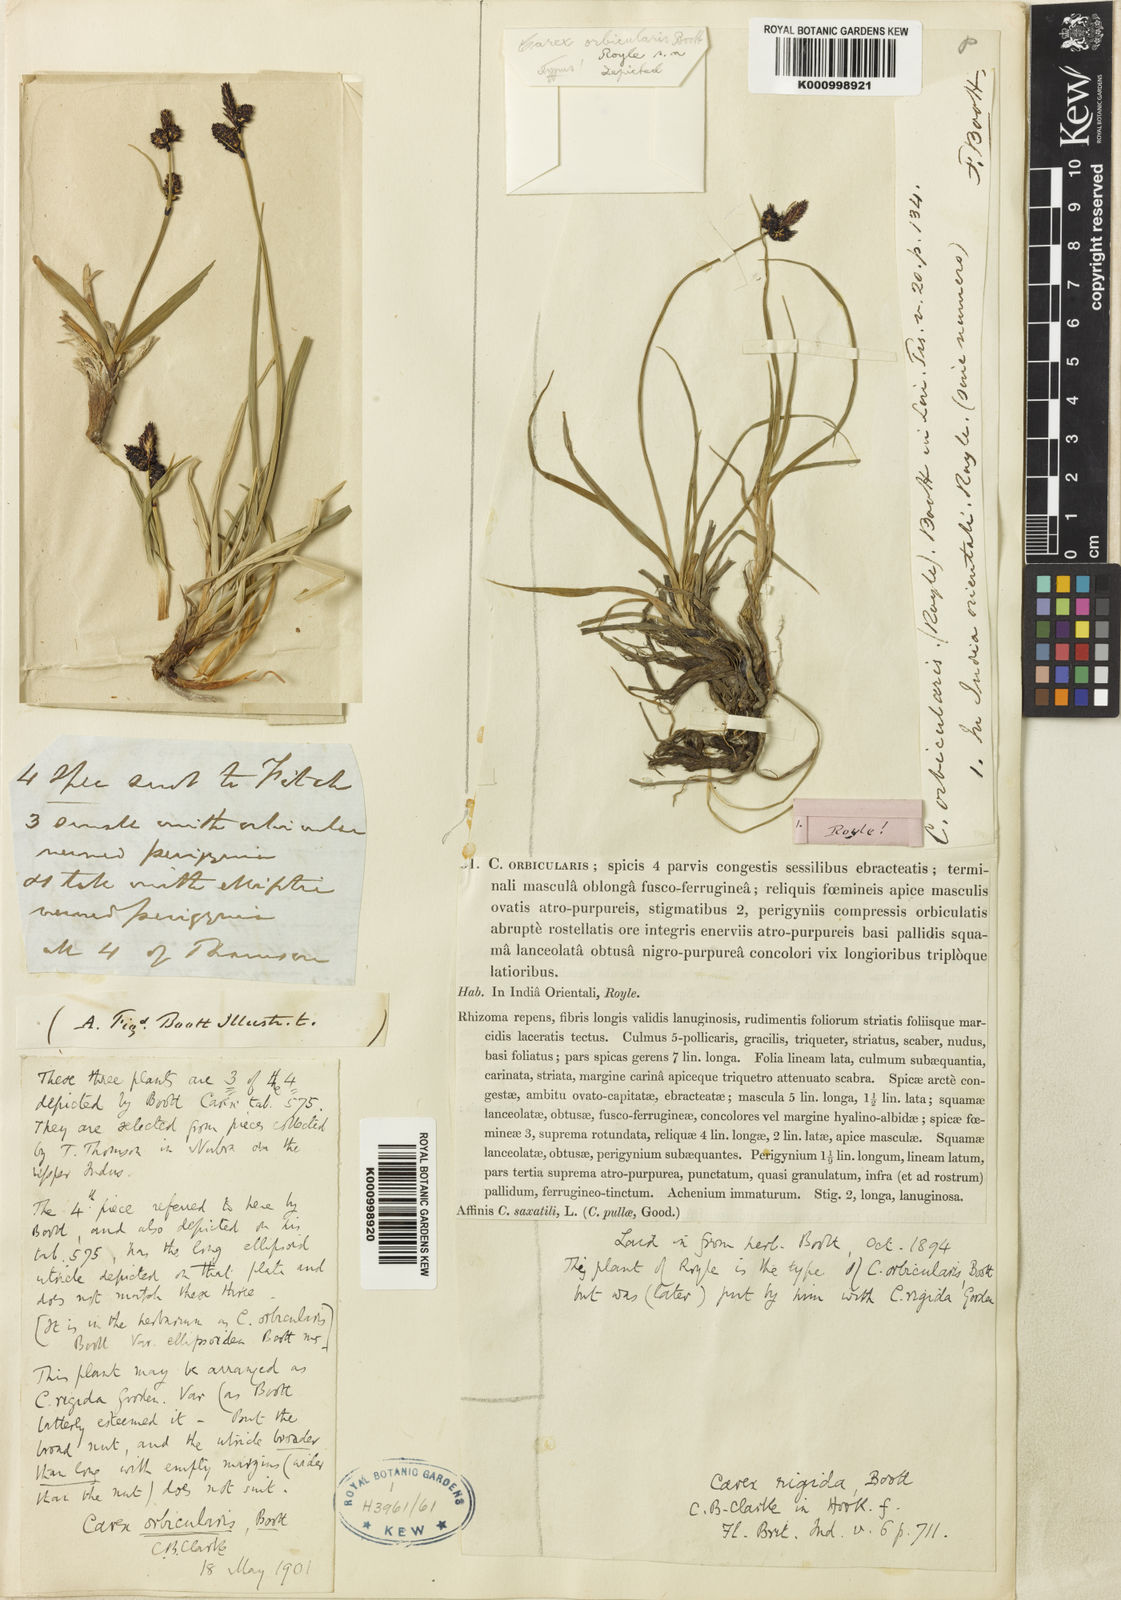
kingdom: Plantae
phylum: Tracheophyta
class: Liliopsida
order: Poales
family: Cyperaceae
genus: Carex
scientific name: Carex orbicularis
